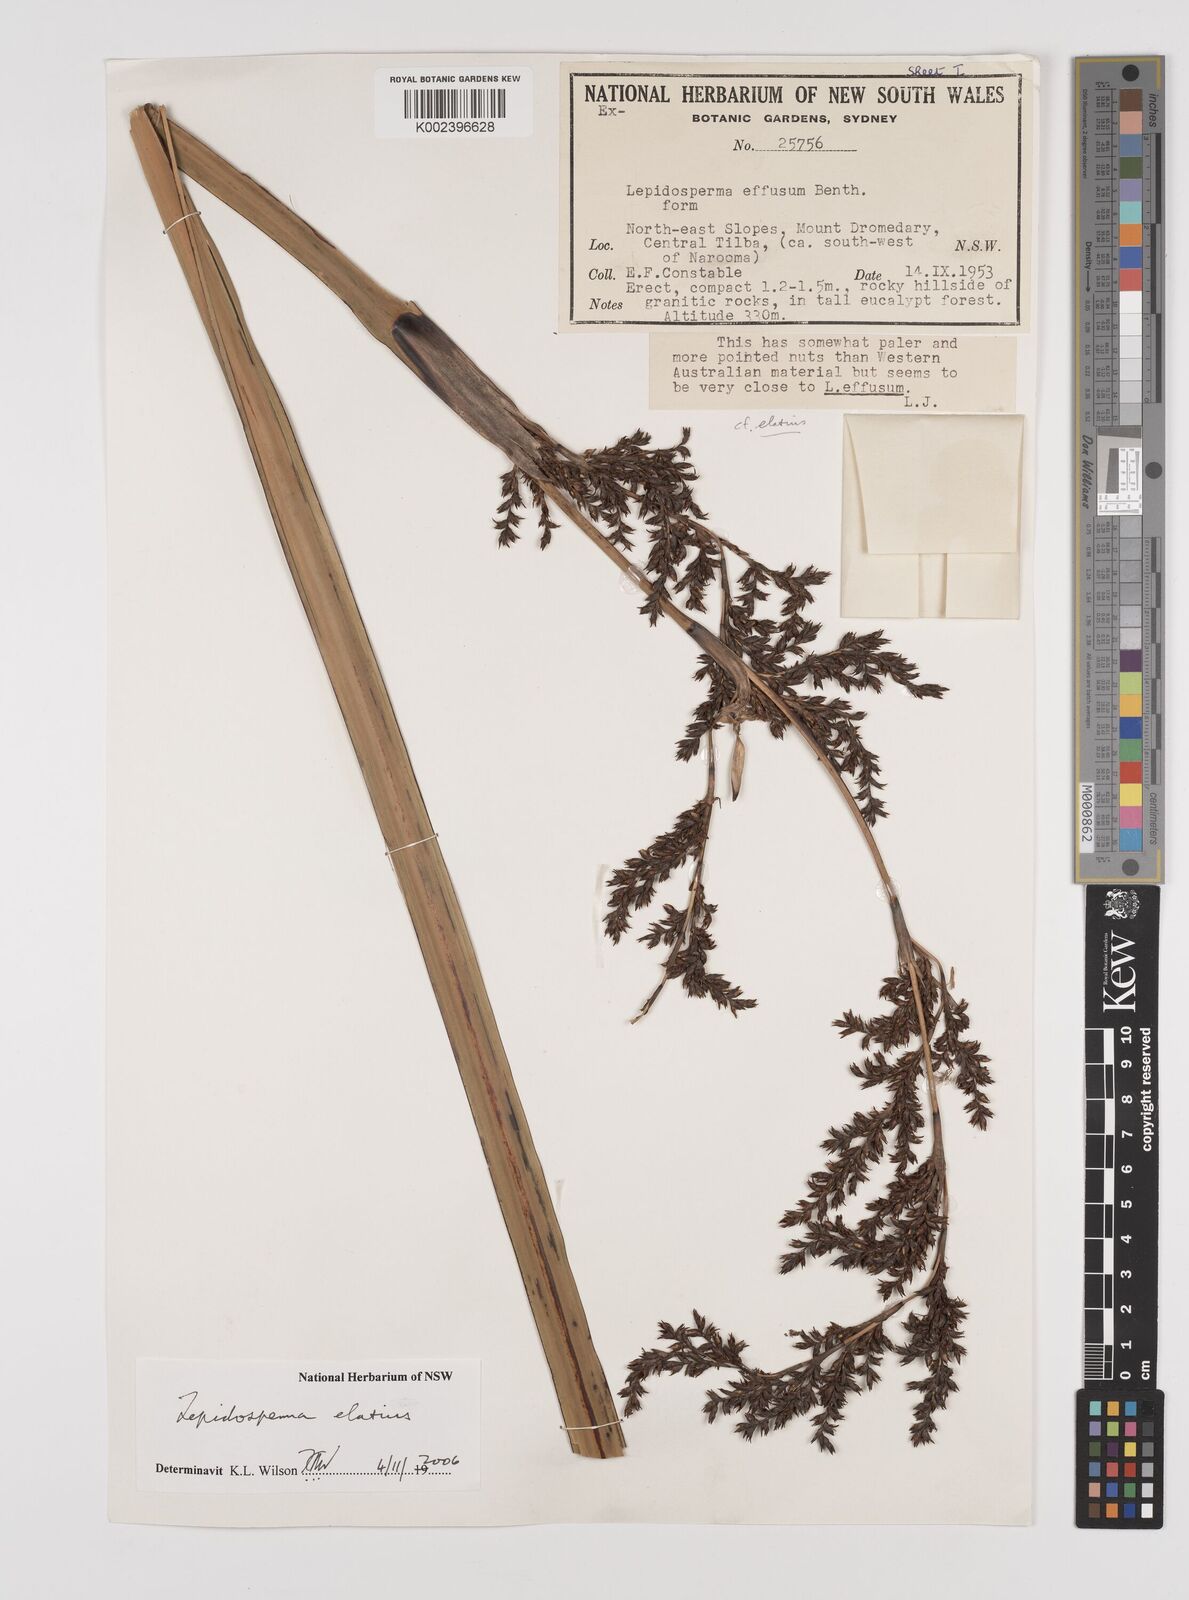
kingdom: Plantae
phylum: Tracheophyta
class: Liliopsida
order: Poales
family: Cyperaceae
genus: Lepidosperma
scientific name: Lepidosperma elatius
